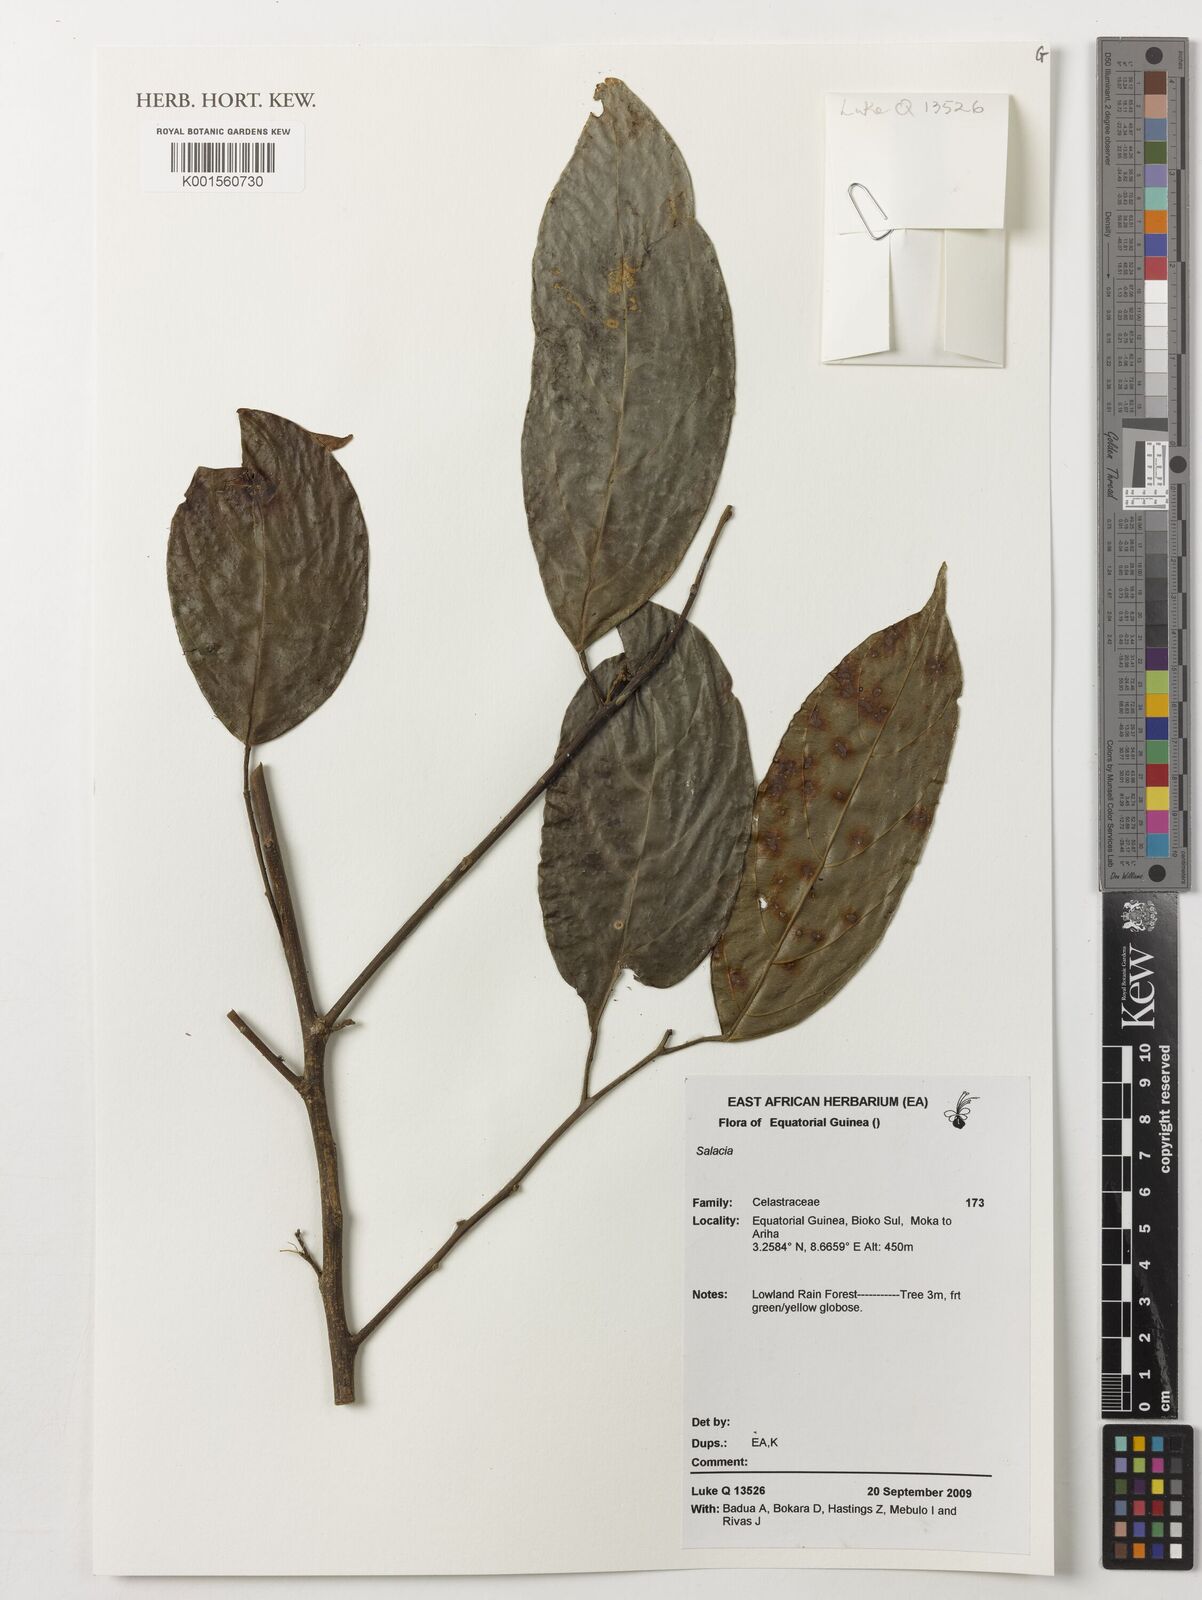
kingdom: Plantae
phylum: Tracheophyta
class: Magnoliopsida
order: Celastrales
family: Celastraceae
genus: Salacia
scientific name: Salacia
